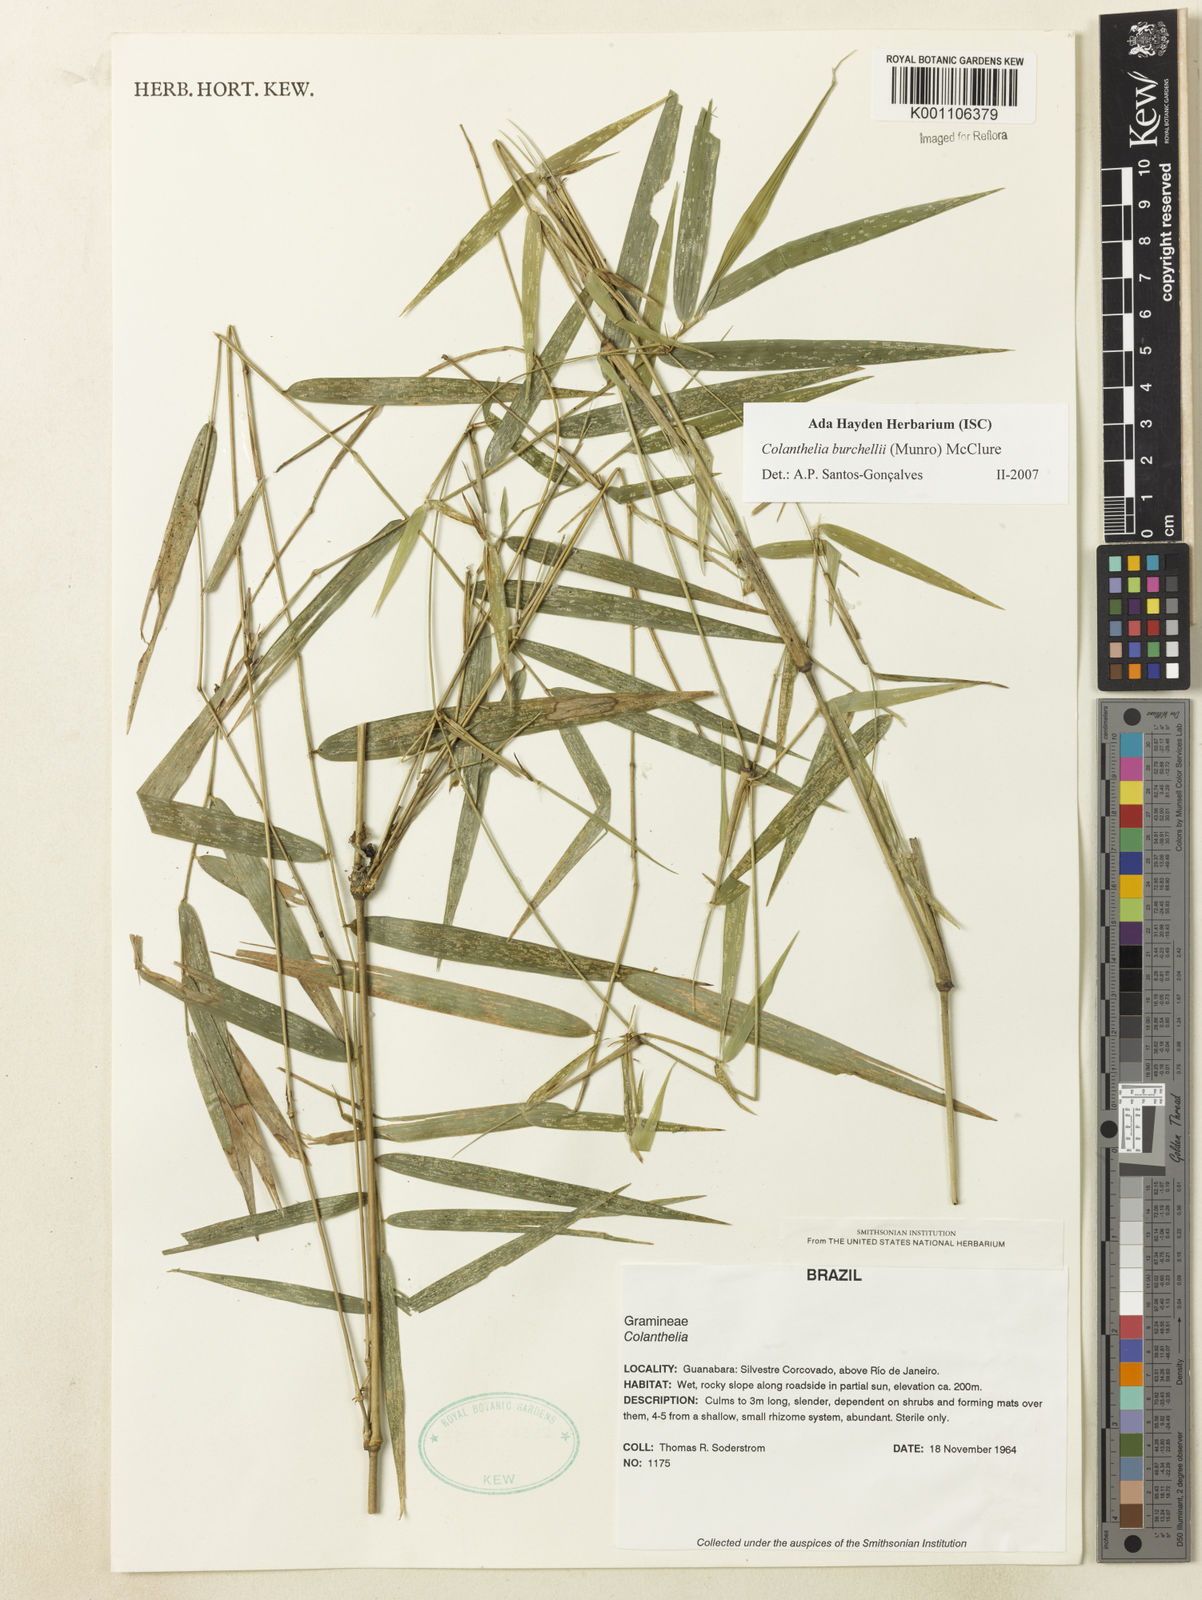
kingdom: Plantae
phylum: Tracheophyta
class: Liliopsida
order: Poales
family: Poaceae
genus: Colanthelia
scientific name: Colanthelia burchellii
